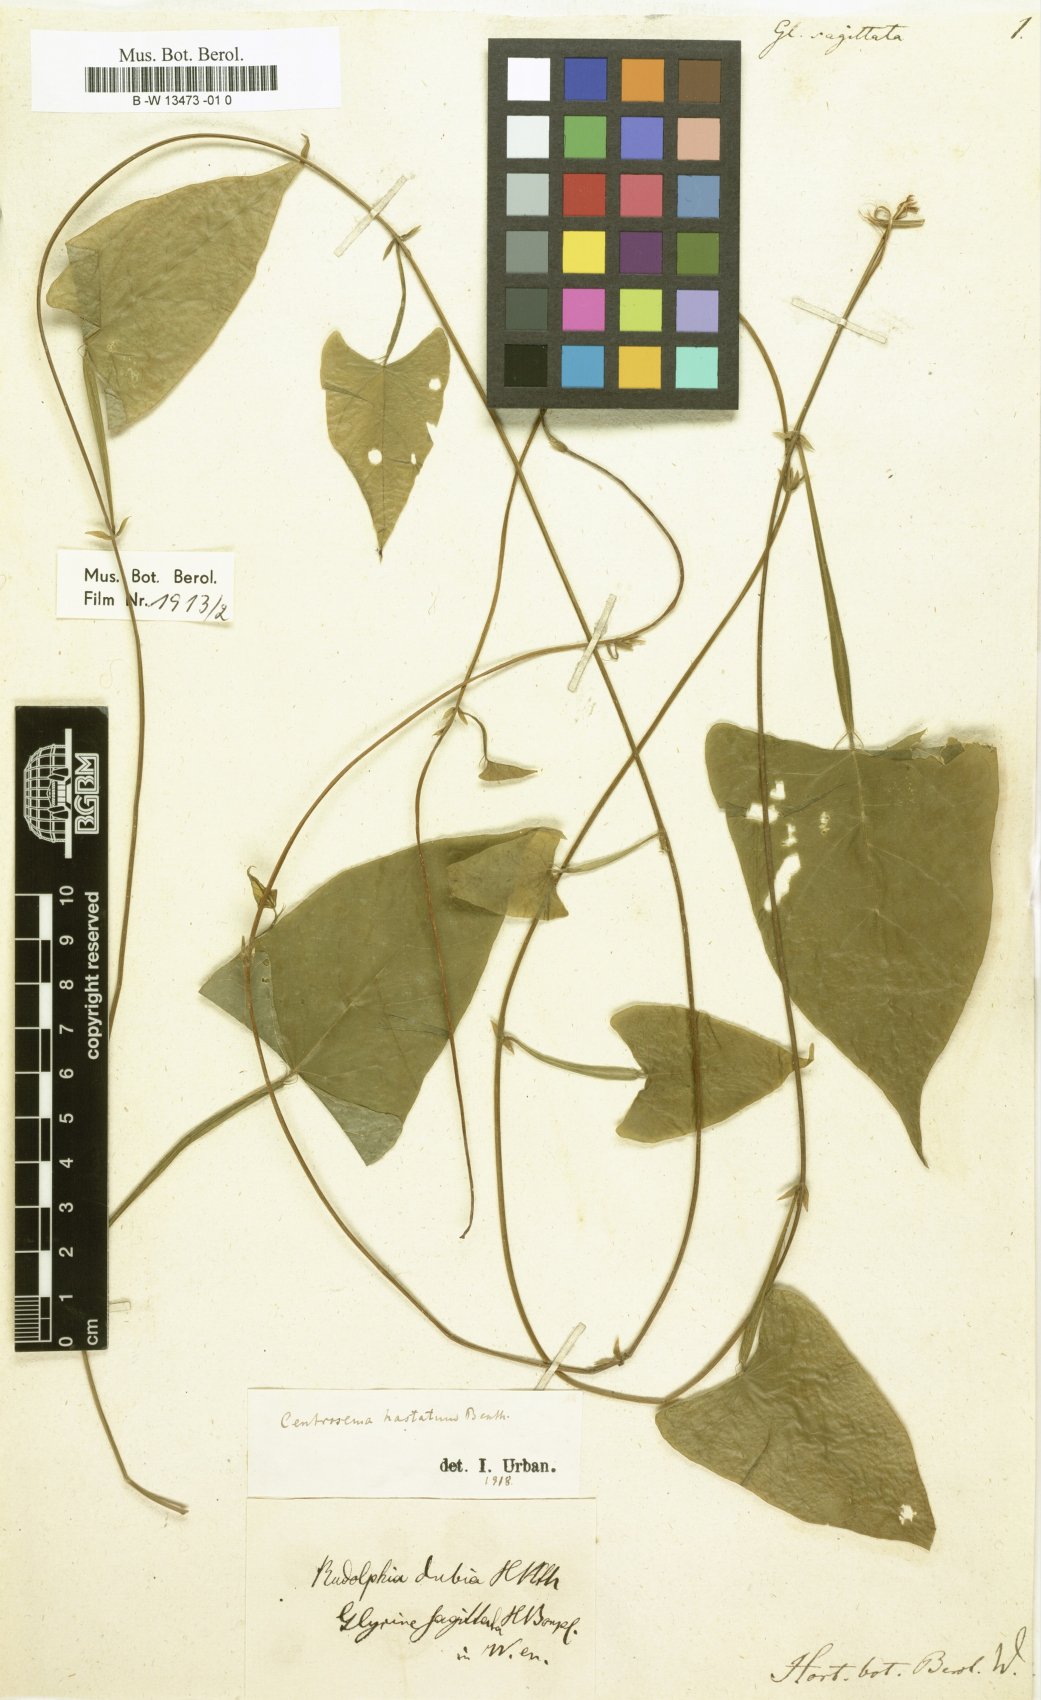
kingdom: Plantae
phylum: Tracheophyta
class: Magnoliopsida
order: Fabales
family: Fabaceae
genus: Centrosema
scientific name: Centrosema sagittatum
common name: Arrowleaf butterfly pea
